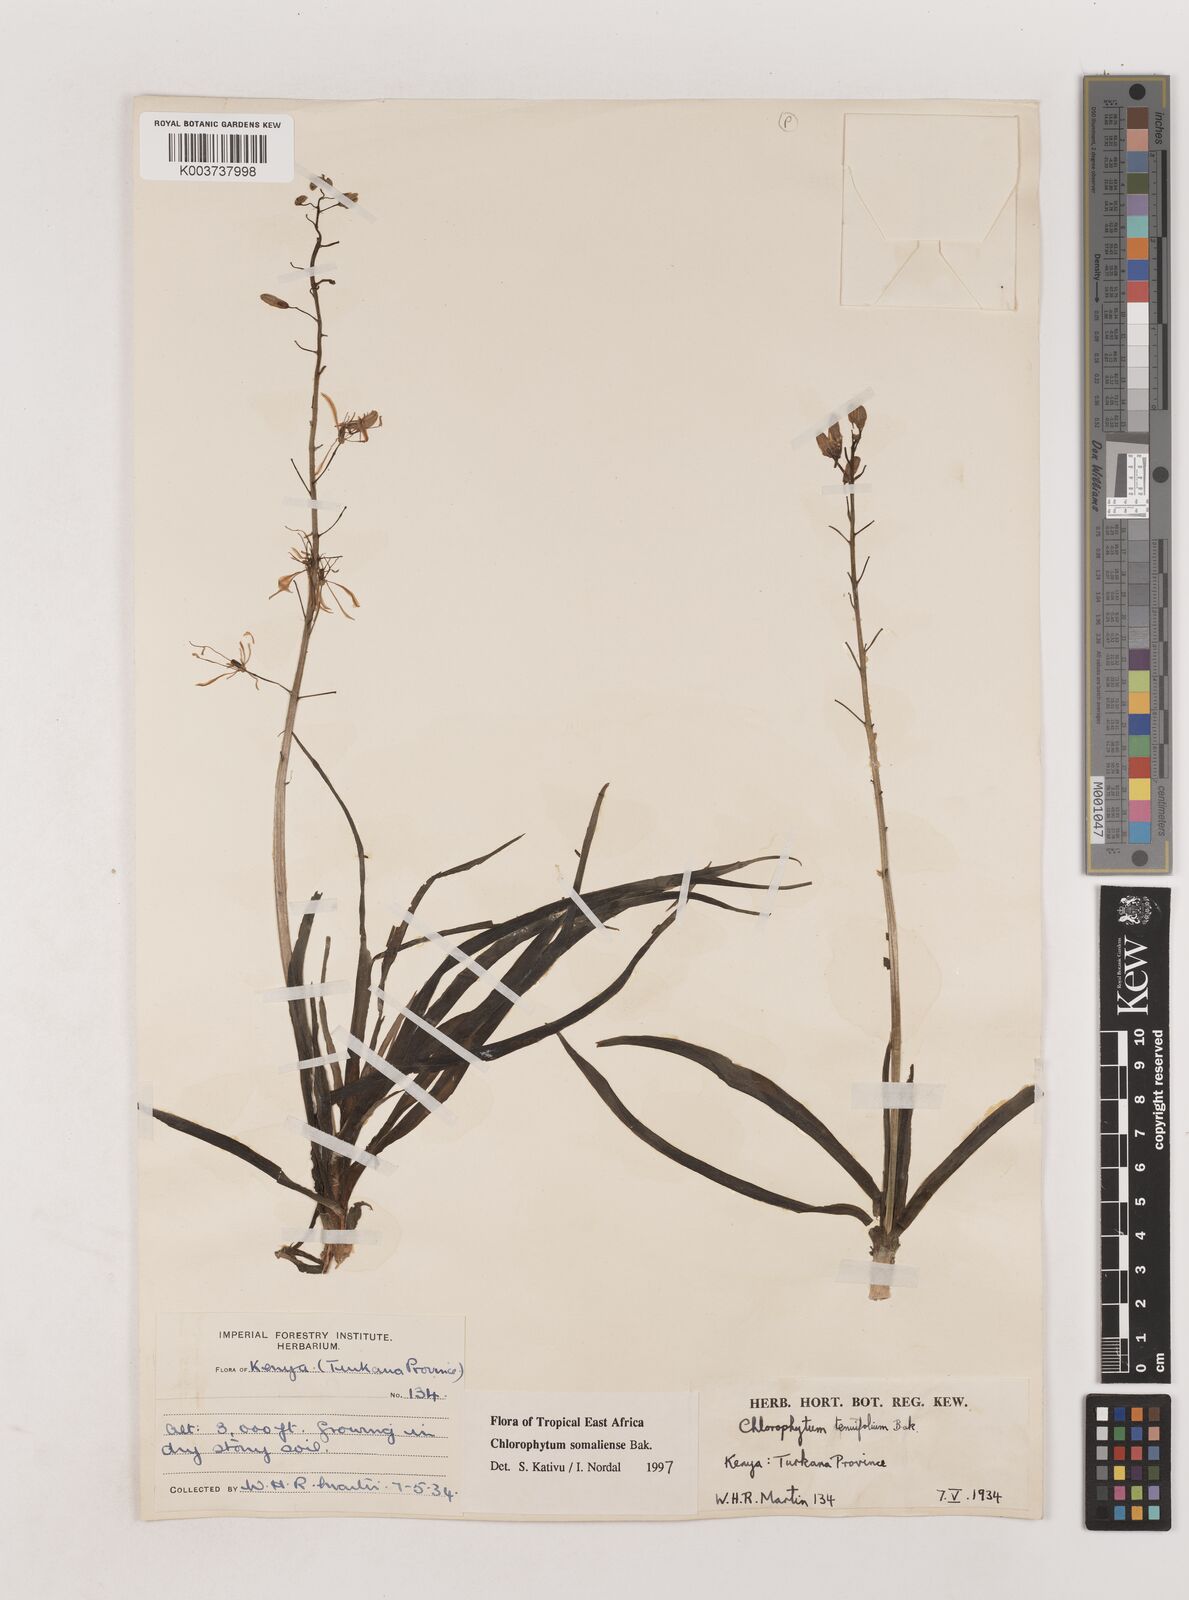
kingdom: Plantae
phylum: Tracheophyta
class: Liliopsida
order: Asparagales
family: Asparagaceae
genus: Chlorophytum
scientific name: Chlorophytum somaliense
